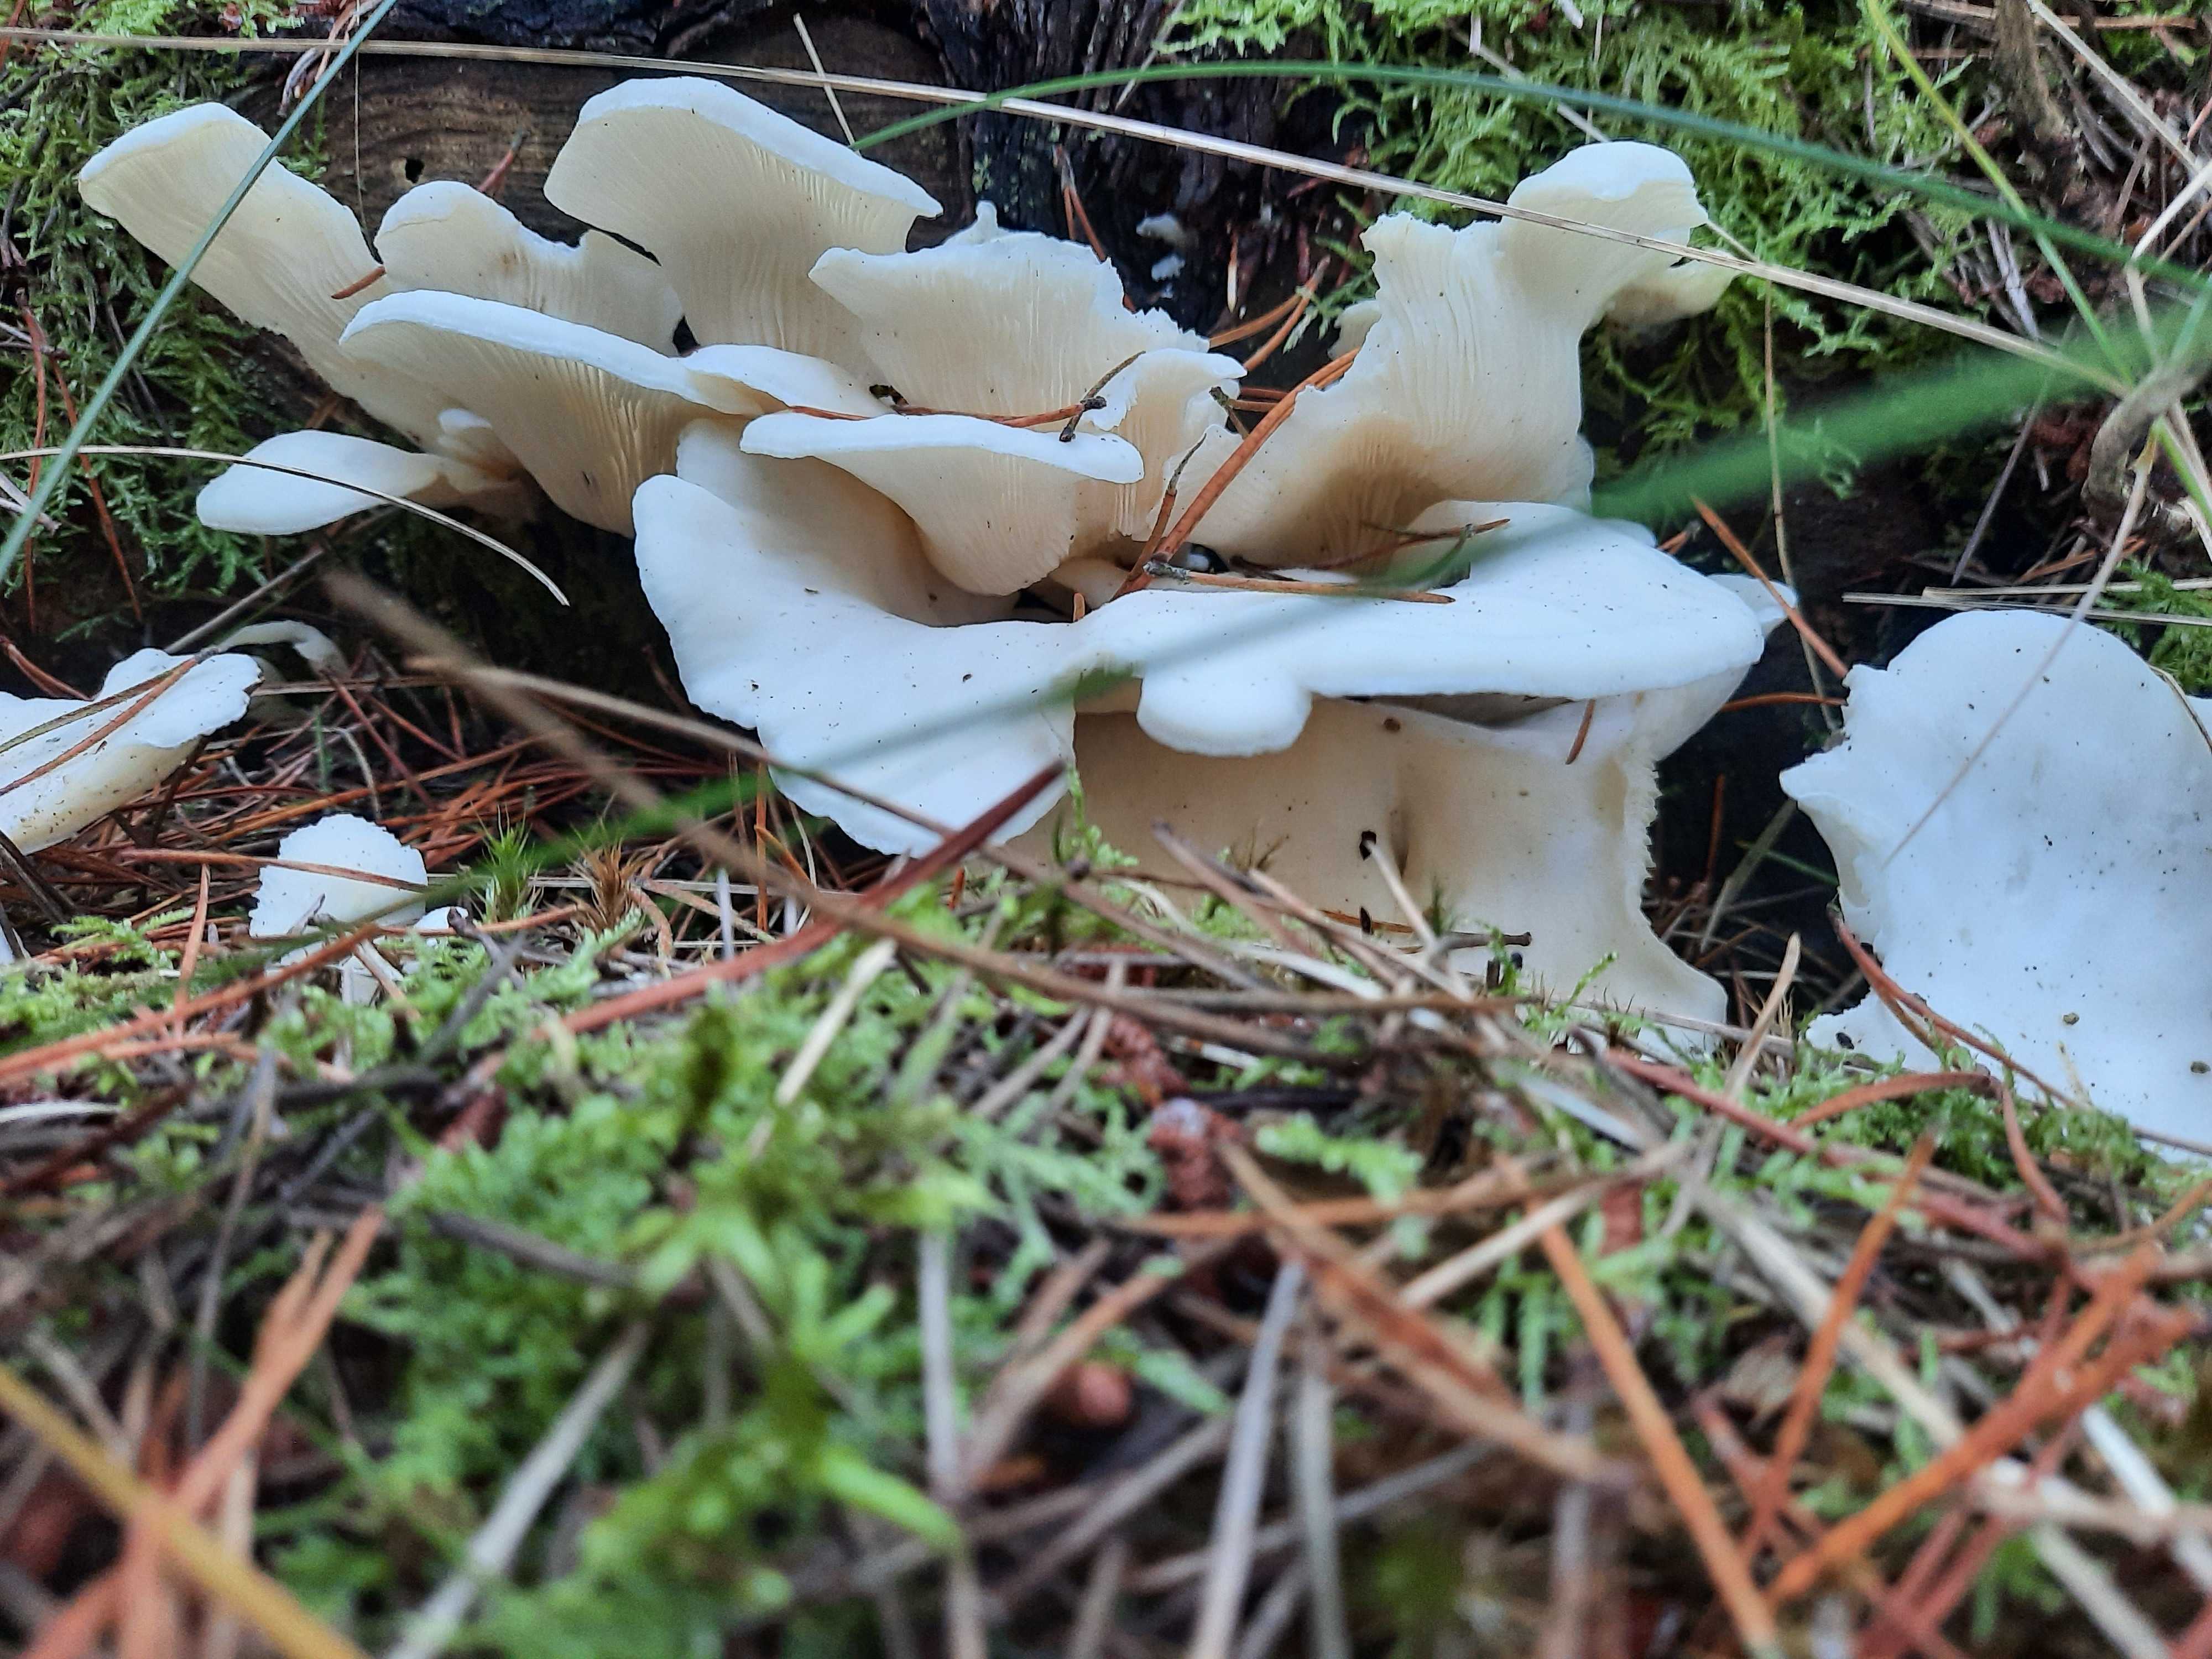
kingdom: Fungi
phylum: Basidiomycota
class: Agaricomycetes
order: Agaricales
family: Marasmiaceae
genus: Pleurocybella
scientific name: Pleurocybella porrigens
